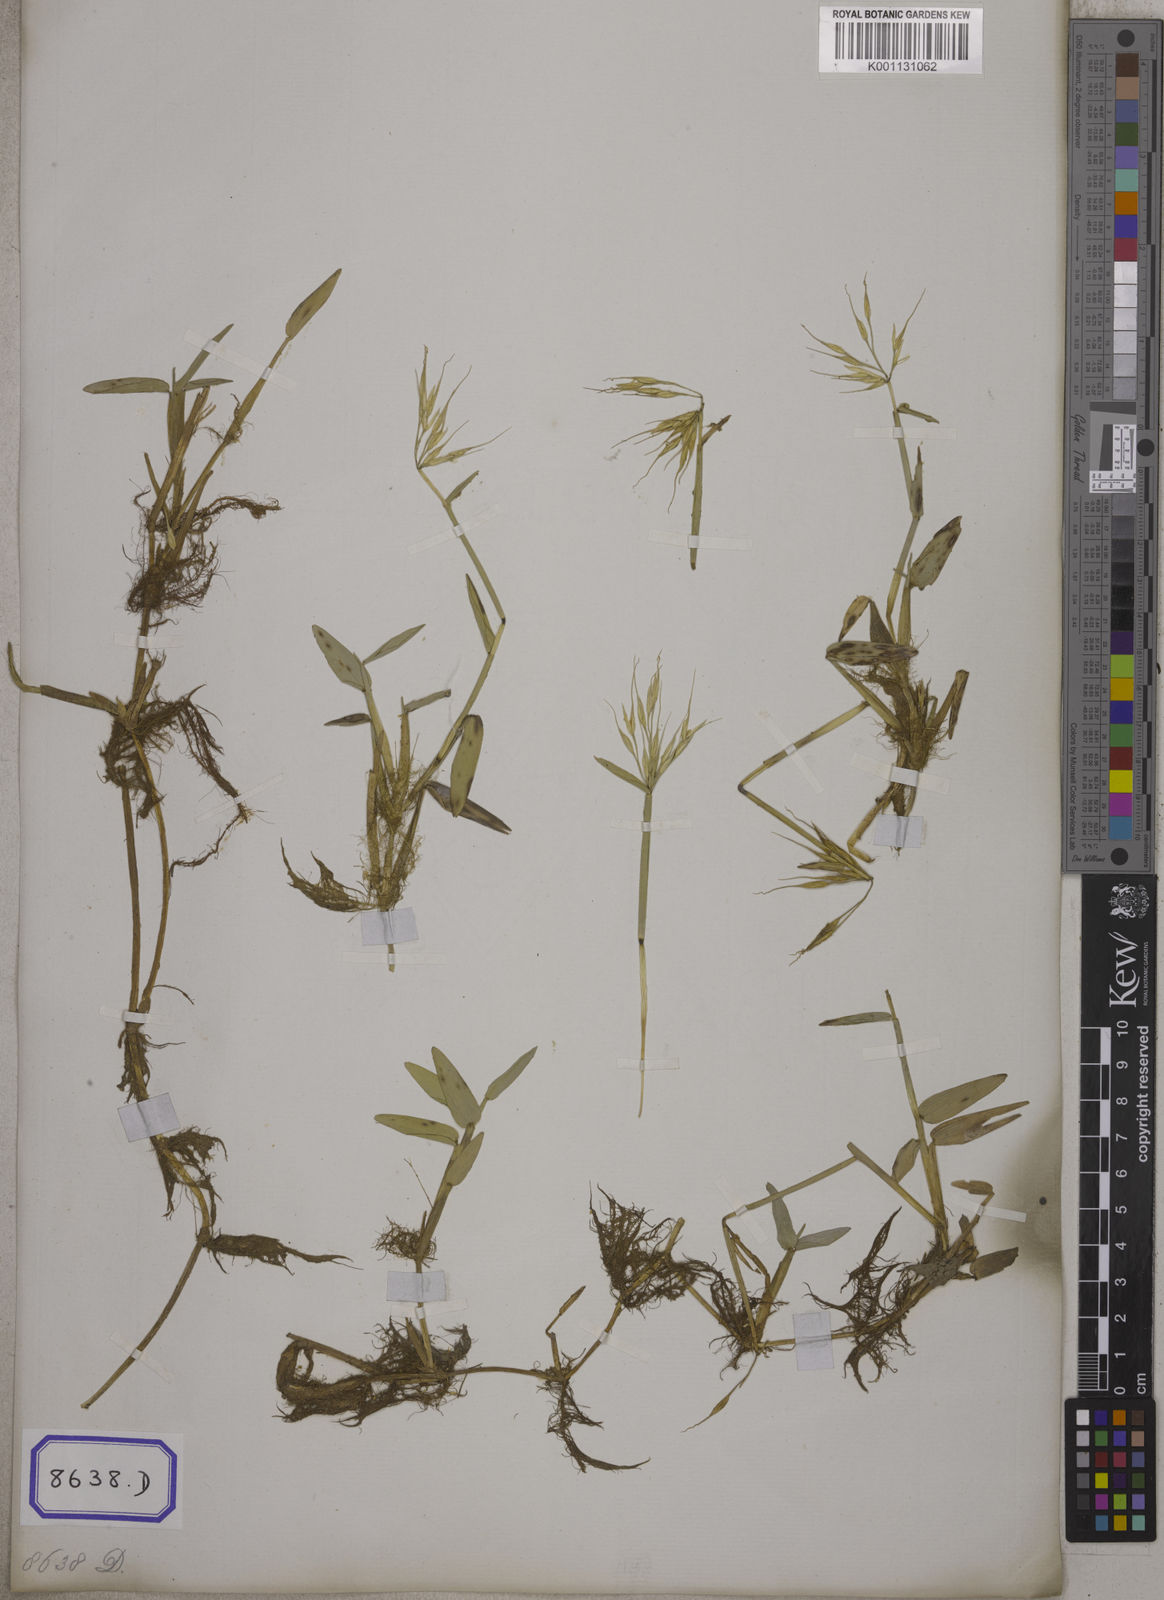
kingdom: Plantae
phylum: Tracheophyta
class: Liliopsida
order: Poales
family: Poaceae
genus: Hygroryza
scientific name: Hygroryza
